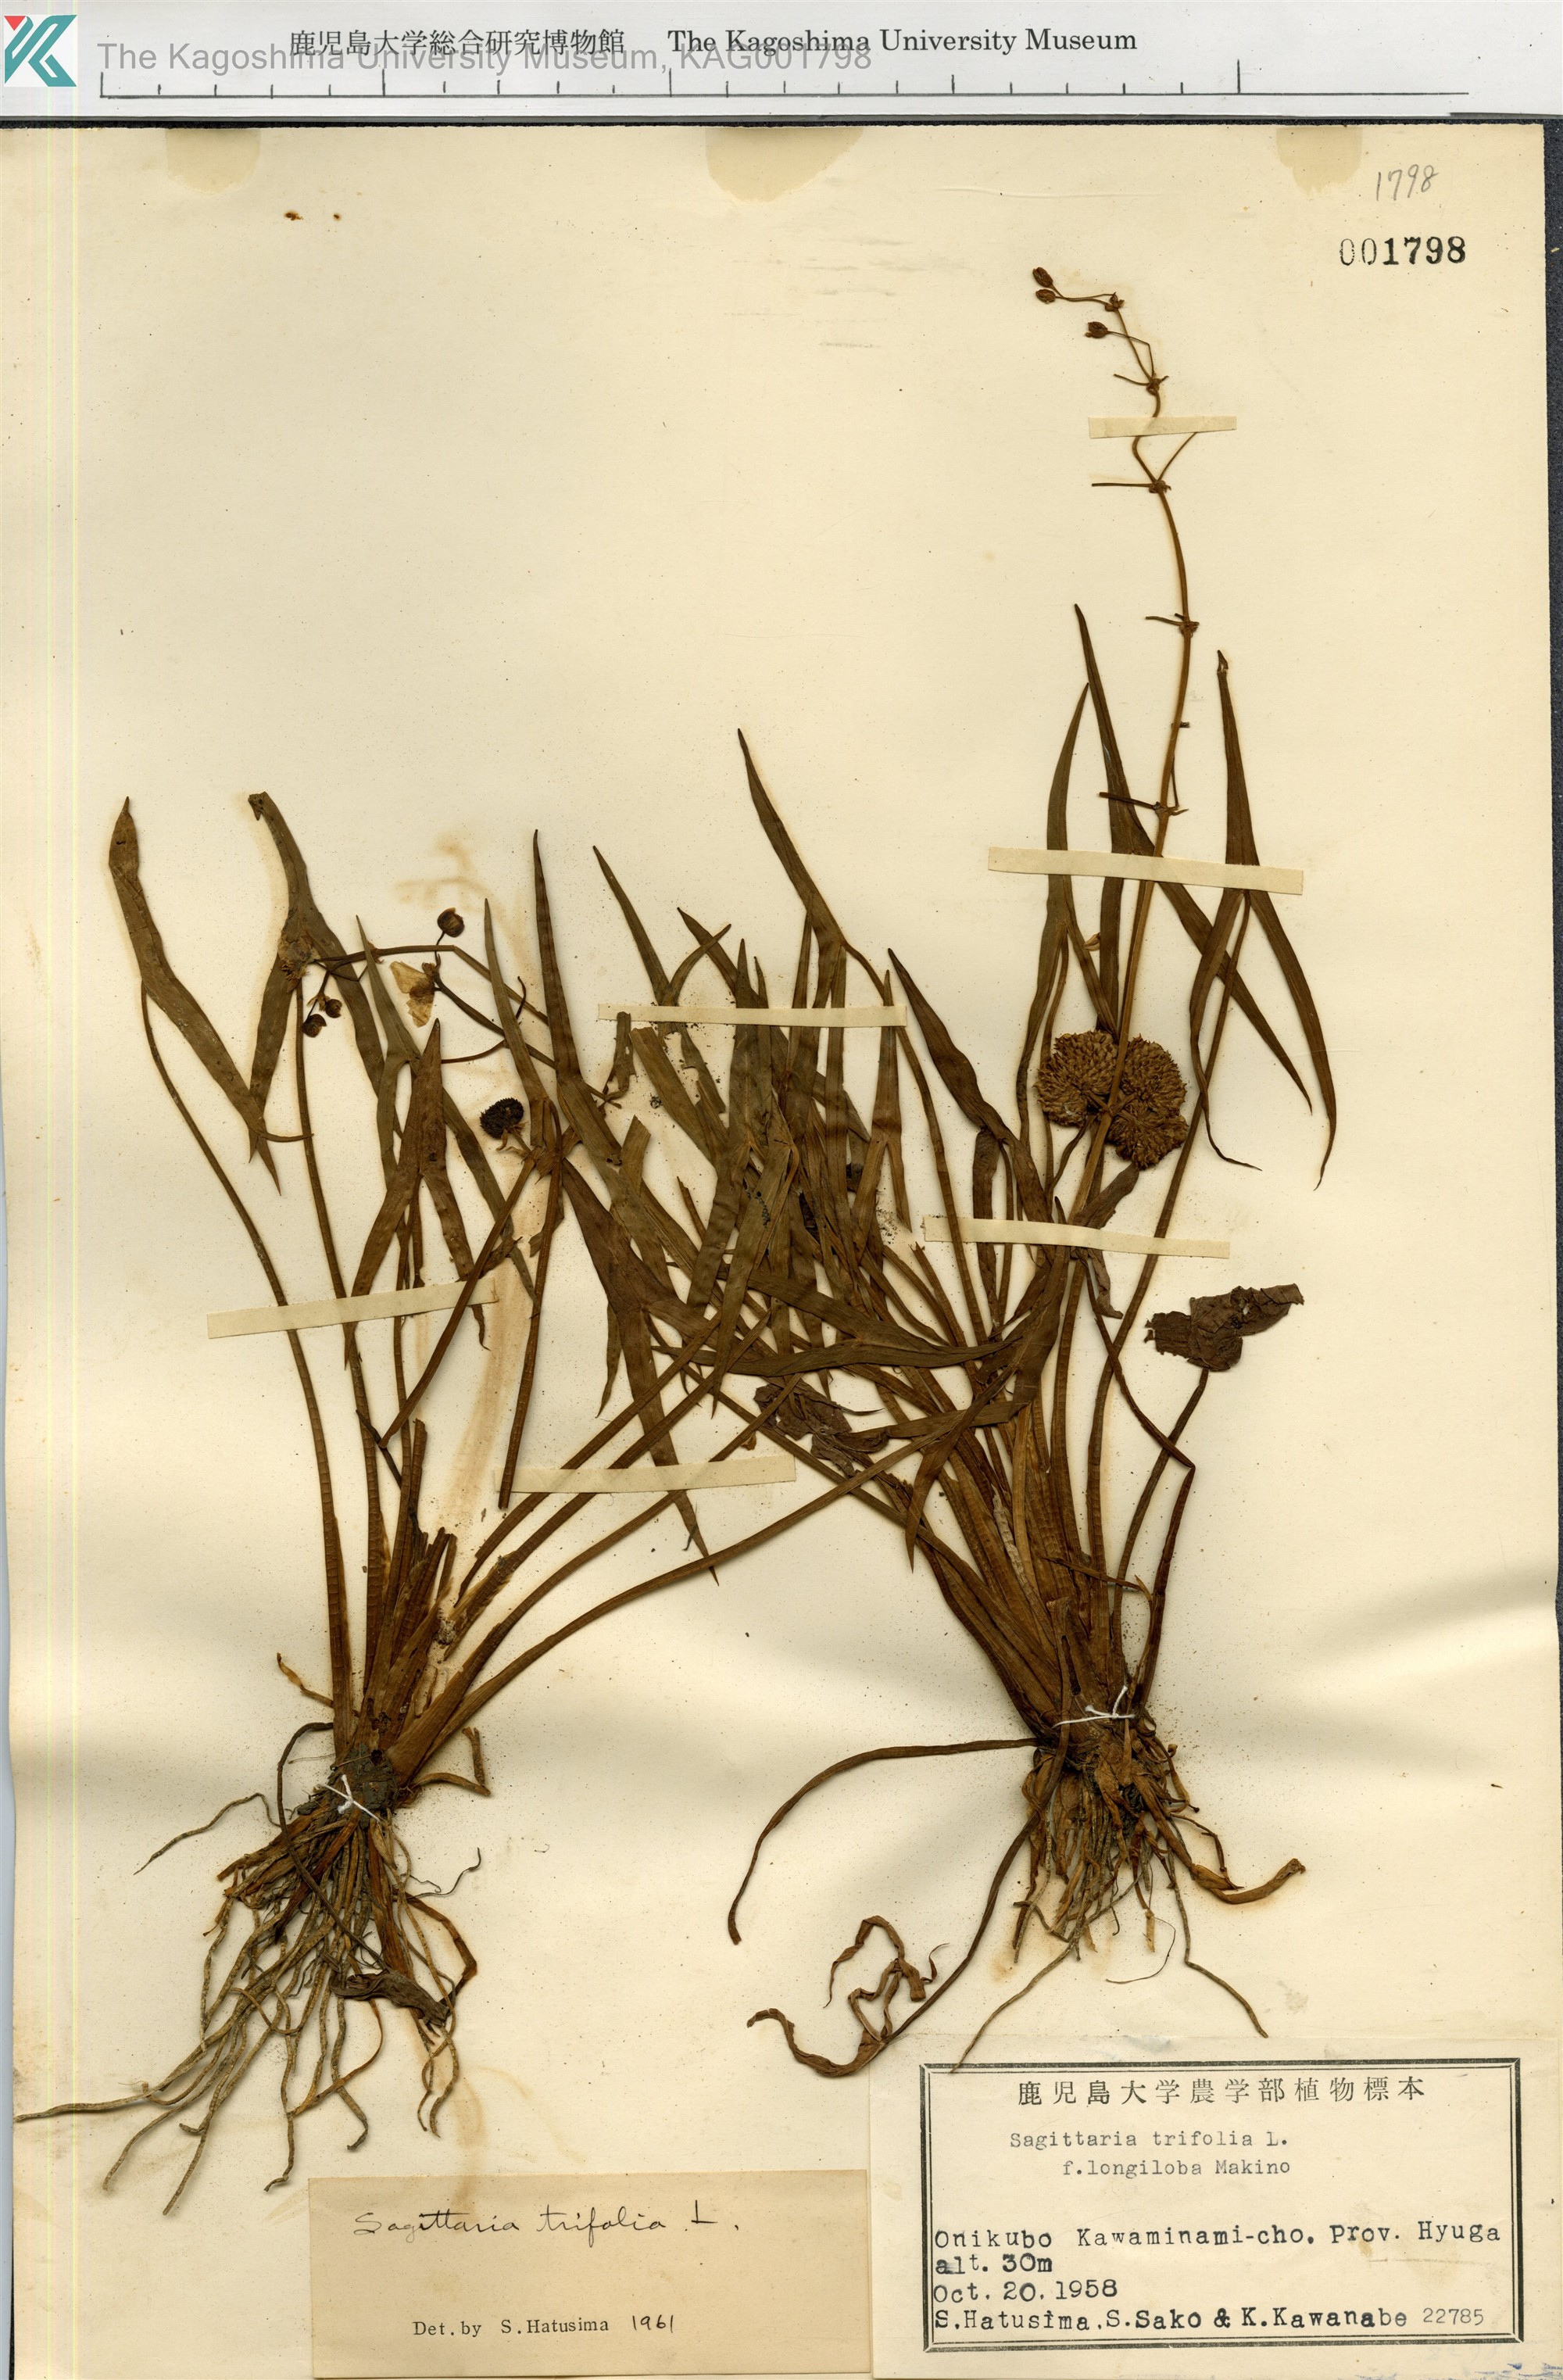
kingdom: Plantae
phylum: Tracheophyta
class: Liliopsida
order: Alismatales
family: Alismataceae
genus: Sagittaria
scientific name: Sagittaria trifolia
